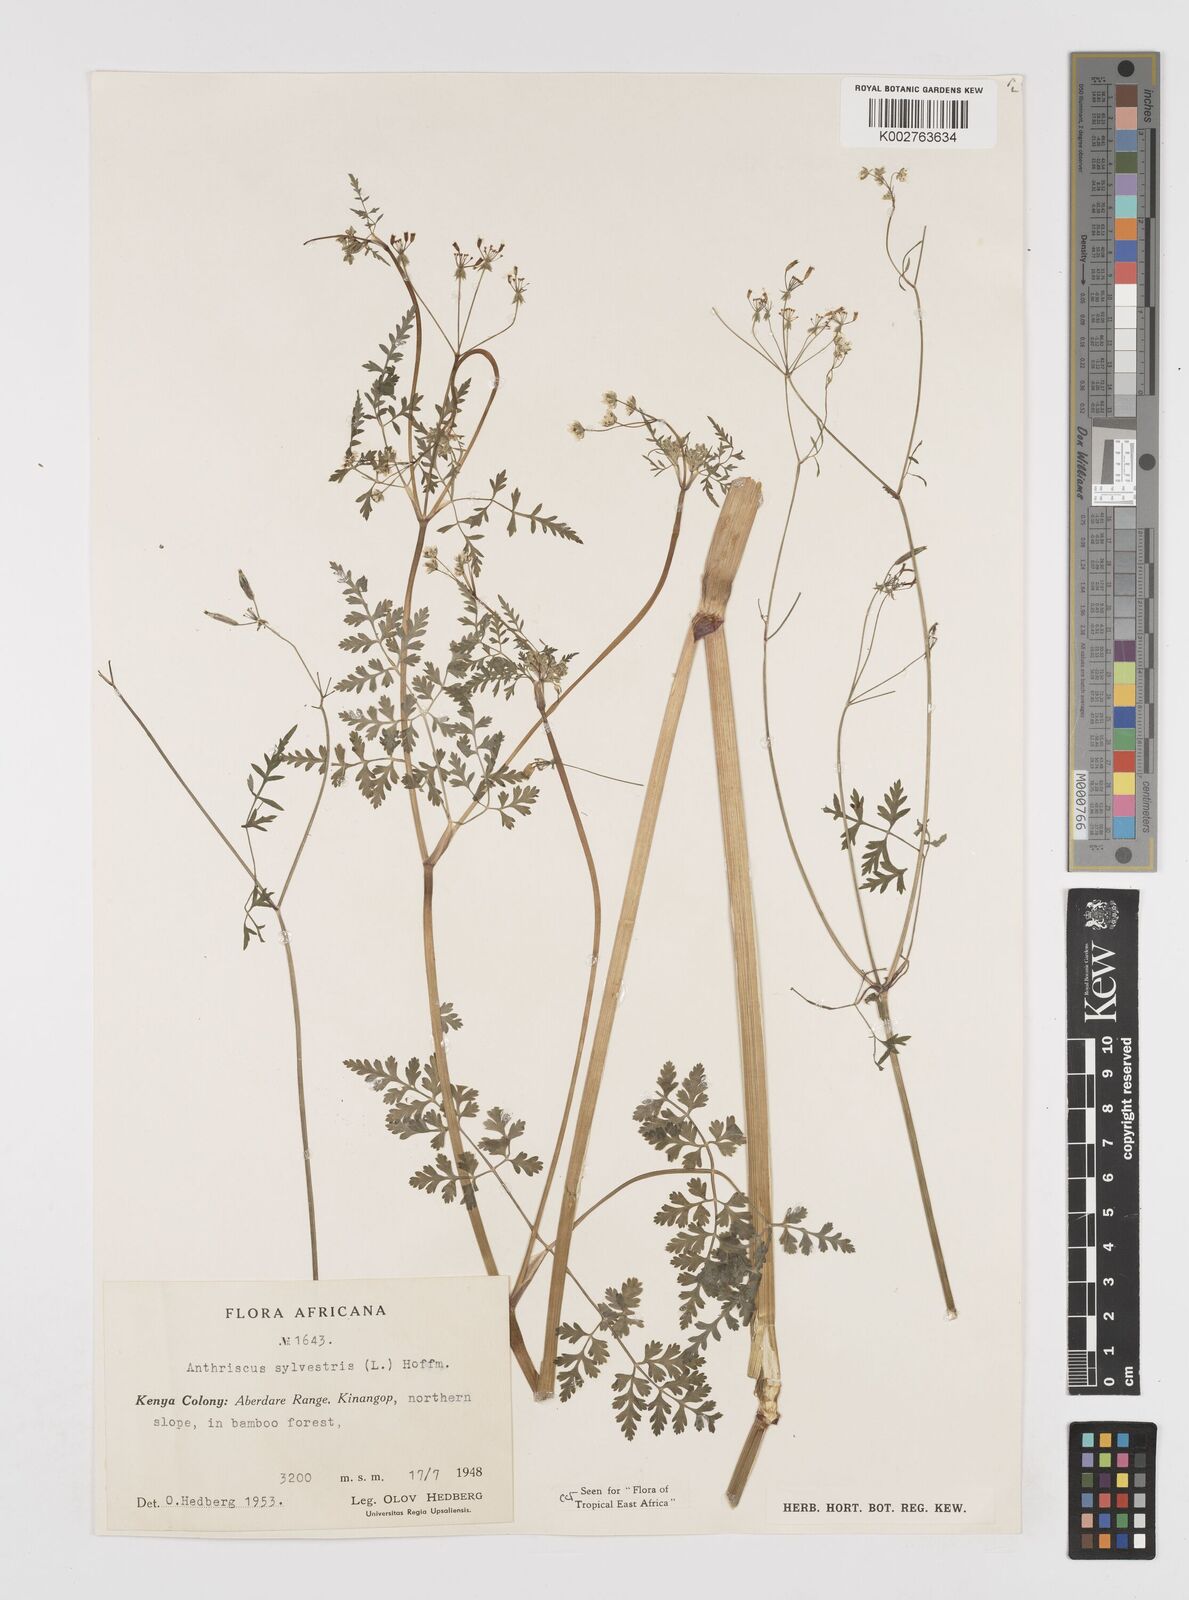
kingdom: Plantae
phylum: Tracheophyta
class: Magnoliopsida
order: Apiales
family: Apiaceae
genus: Anthriscus
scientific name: Anthriscus sylvestris
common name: Cow parsley
